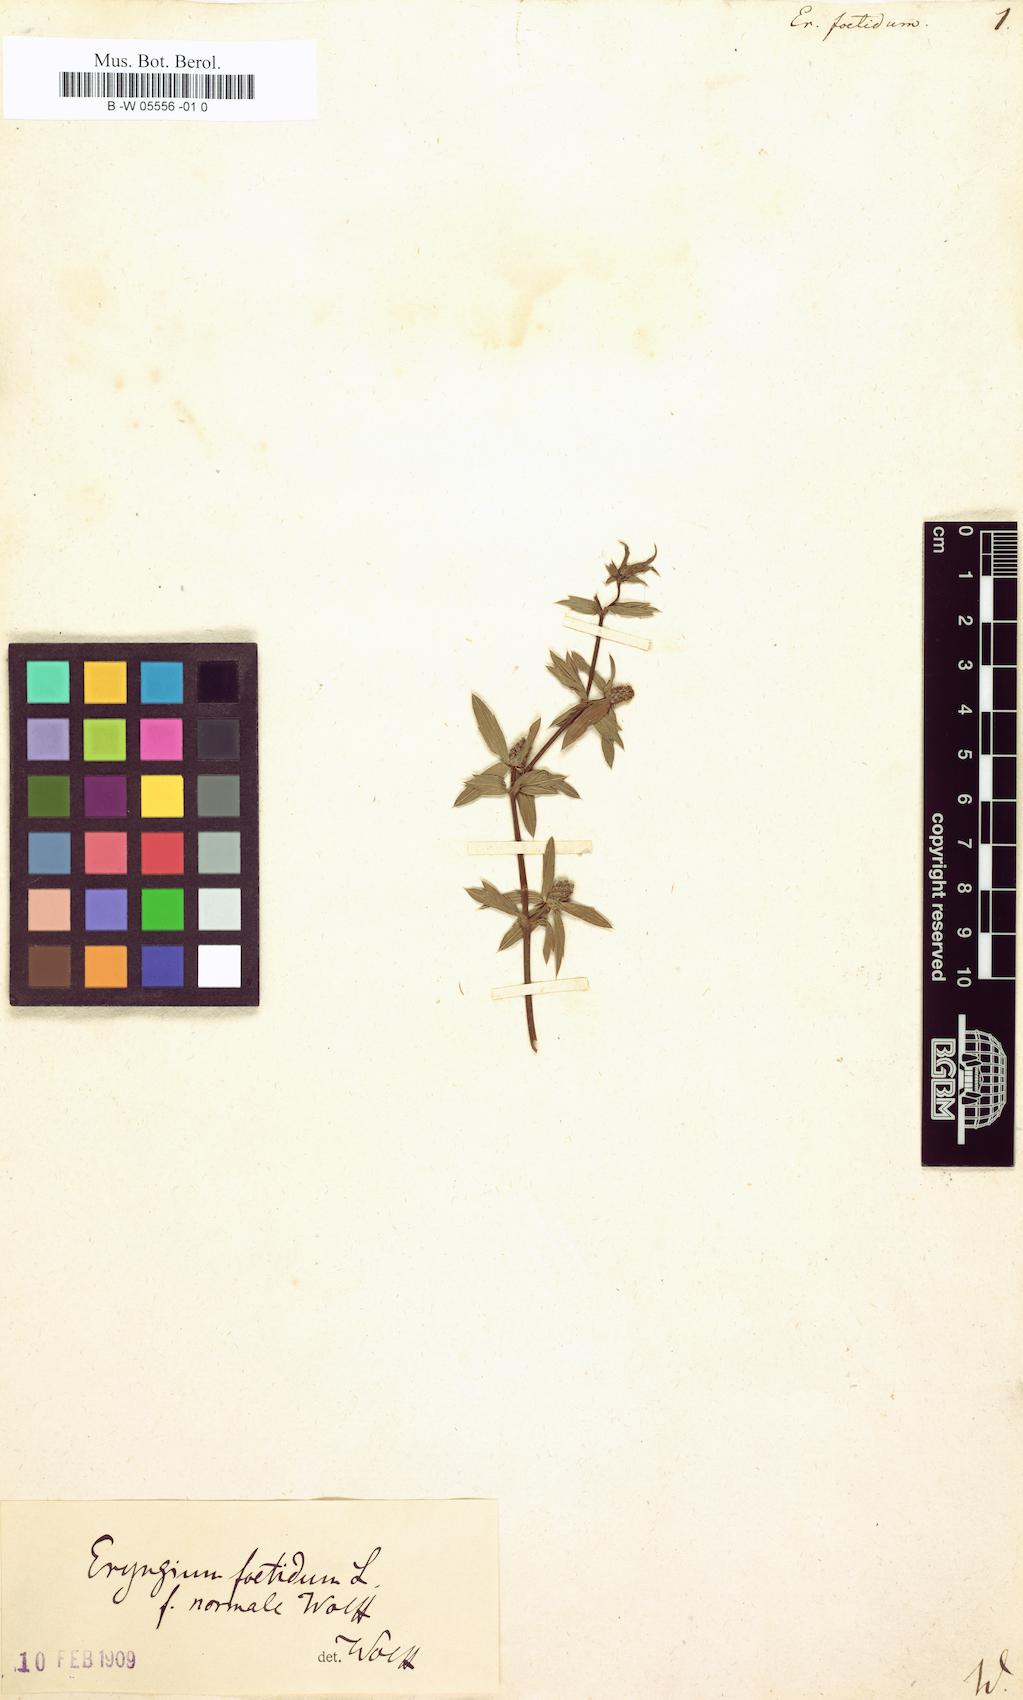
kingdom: Plantae
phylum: Tracheophyta
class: Magnoliopsida
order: Apiales
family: Apiaceae
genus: Eryngium
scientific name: Eryngium foetidum
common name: Fitweed
